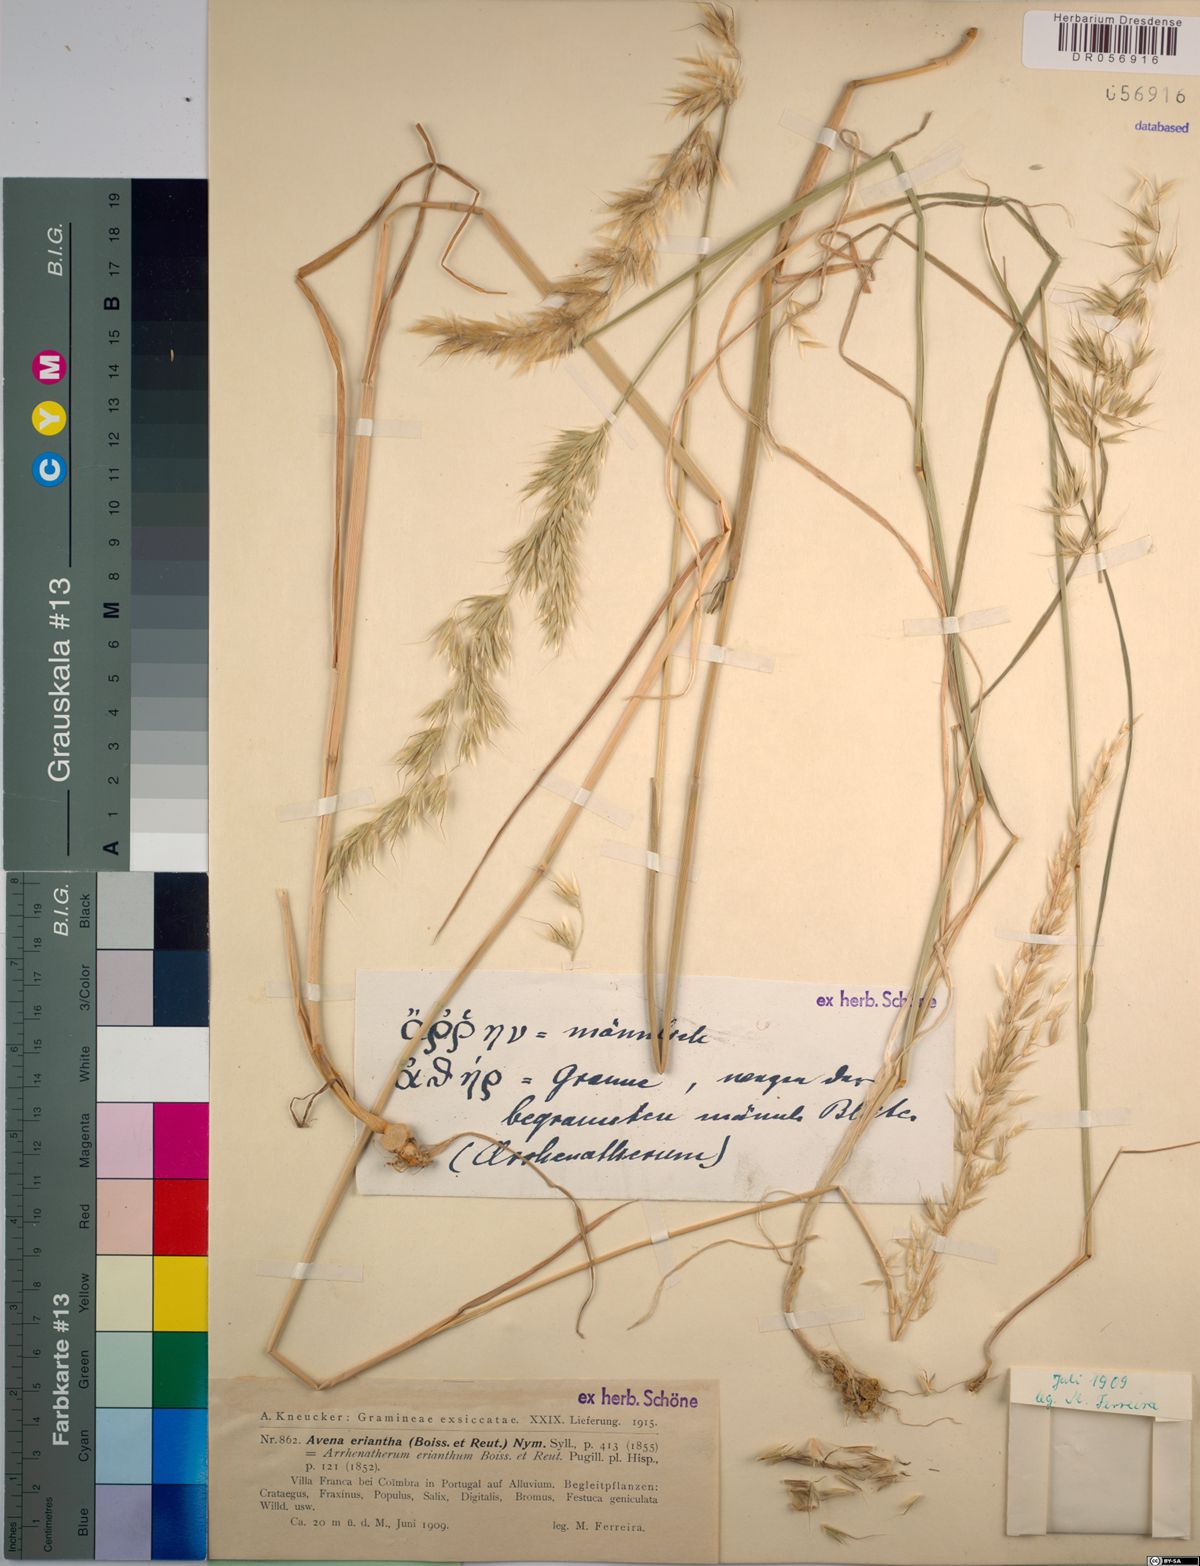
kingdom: Plantae
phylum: Tracheophyta
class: Liliopsida
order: Poales
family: Poaceae
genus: Avena
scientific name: Avena eriantha
